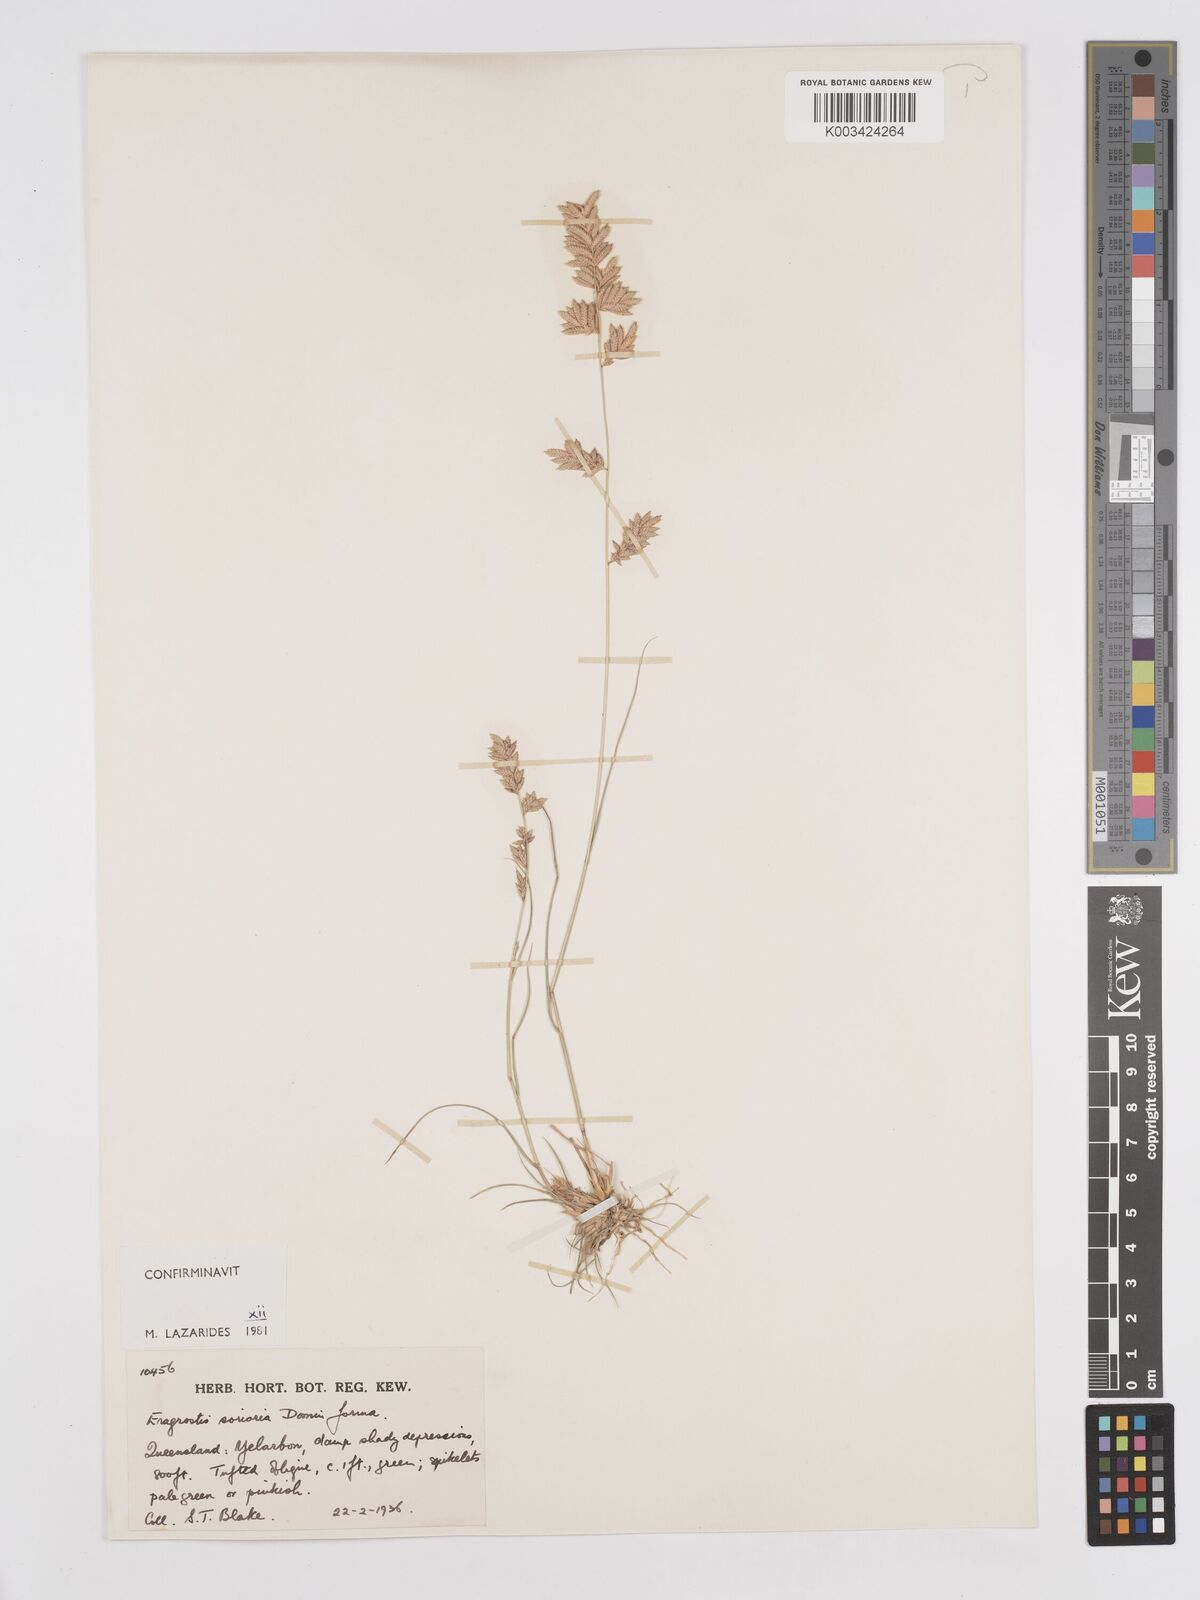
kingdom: Plantae
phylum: Tracheophyta
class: Liliopsida
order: Poales
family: Poaceae
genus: Eragrostis
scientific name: Eragrostis sororia
